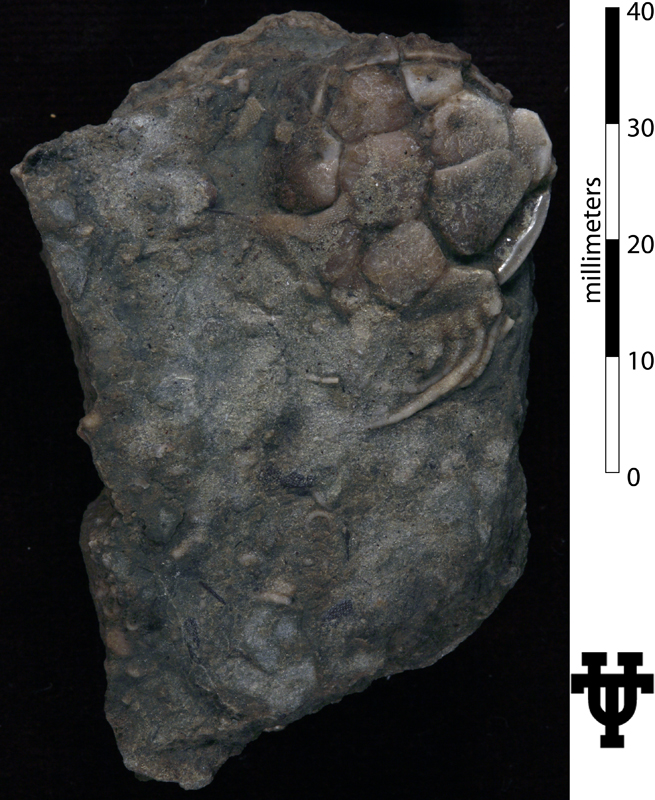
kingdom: Animalia
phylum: Echinodermata
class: Crinoidea
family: Platycystitidae
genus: Globulocystites
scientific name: Globulocystites Platycystites cristatus
